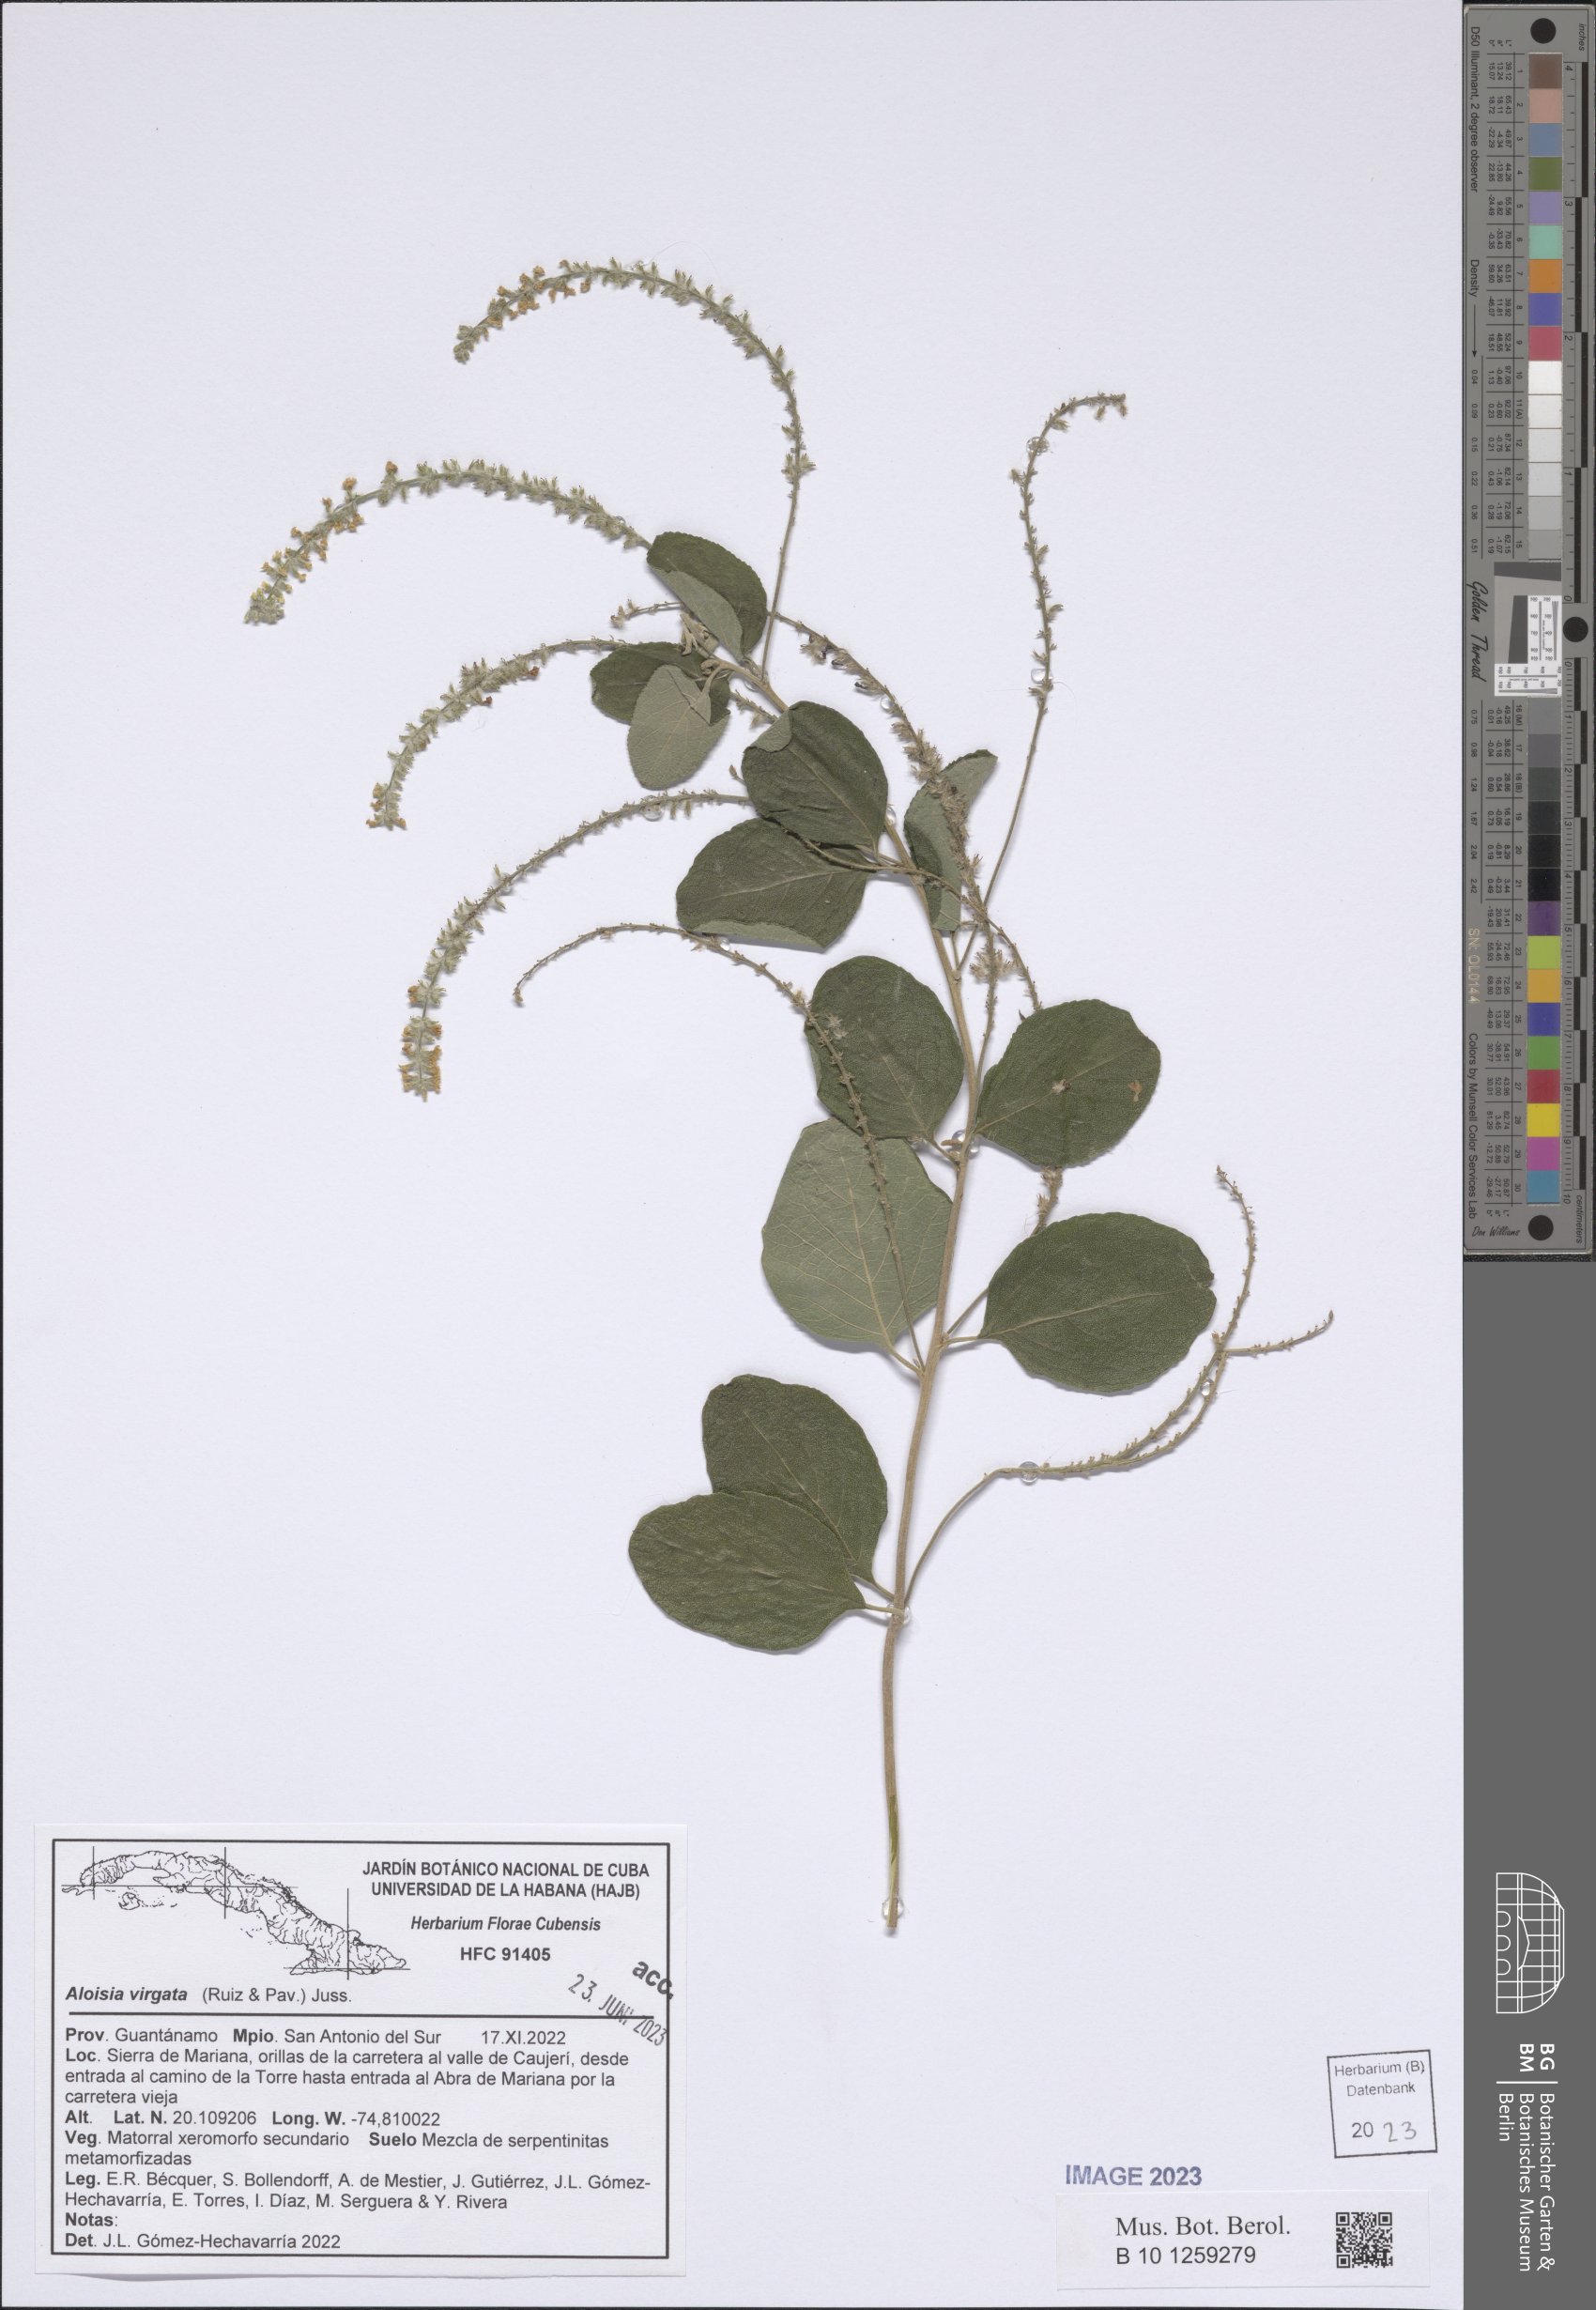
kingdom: Plantae
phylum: Tracheophyta
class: Magnoliopsida
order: Lamiales
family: Verbenaceae
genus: Aloysia
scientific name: Aloysia virgata
